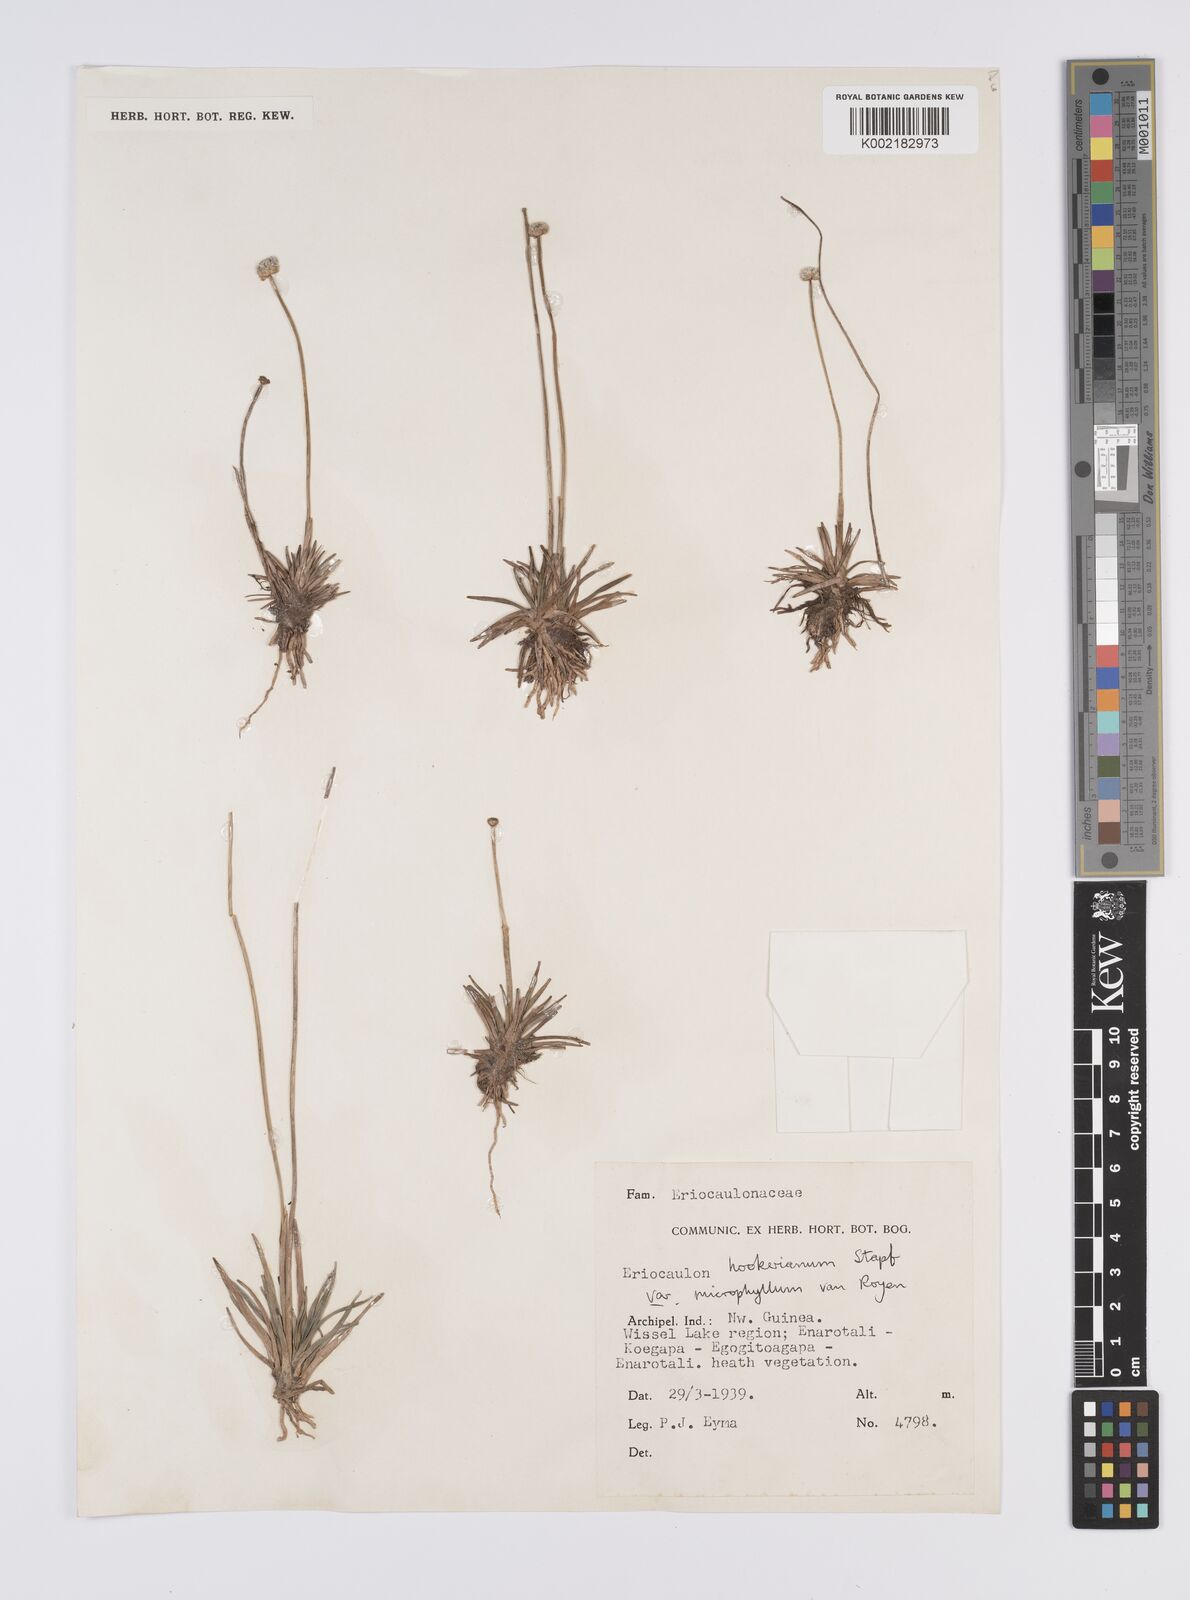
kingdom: Plantae
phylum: Tracheophyta
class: Liliopsida
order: Poales
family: Eriocaulaceae
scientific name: Eriocaulaceae
